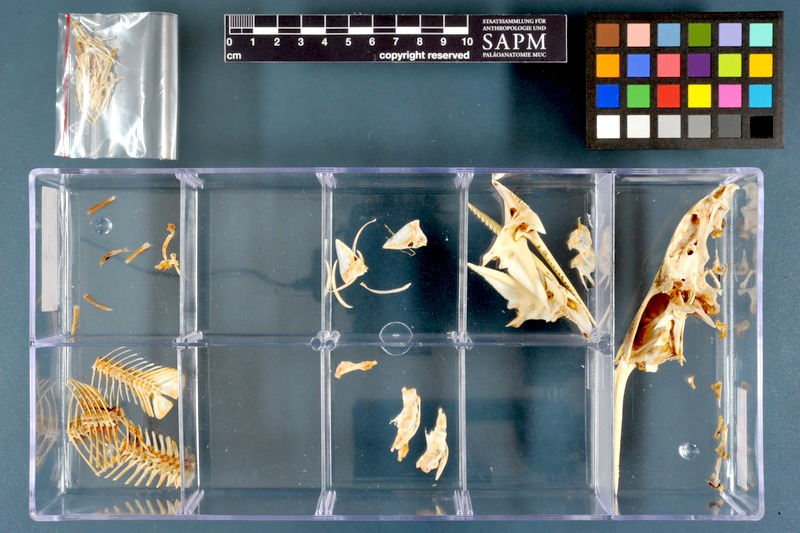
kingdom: Animalia
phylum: Chordata
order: Siluriformes
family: Mochokidae
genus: Synodontis
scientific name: Synodontis schall
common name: Wahrindi
